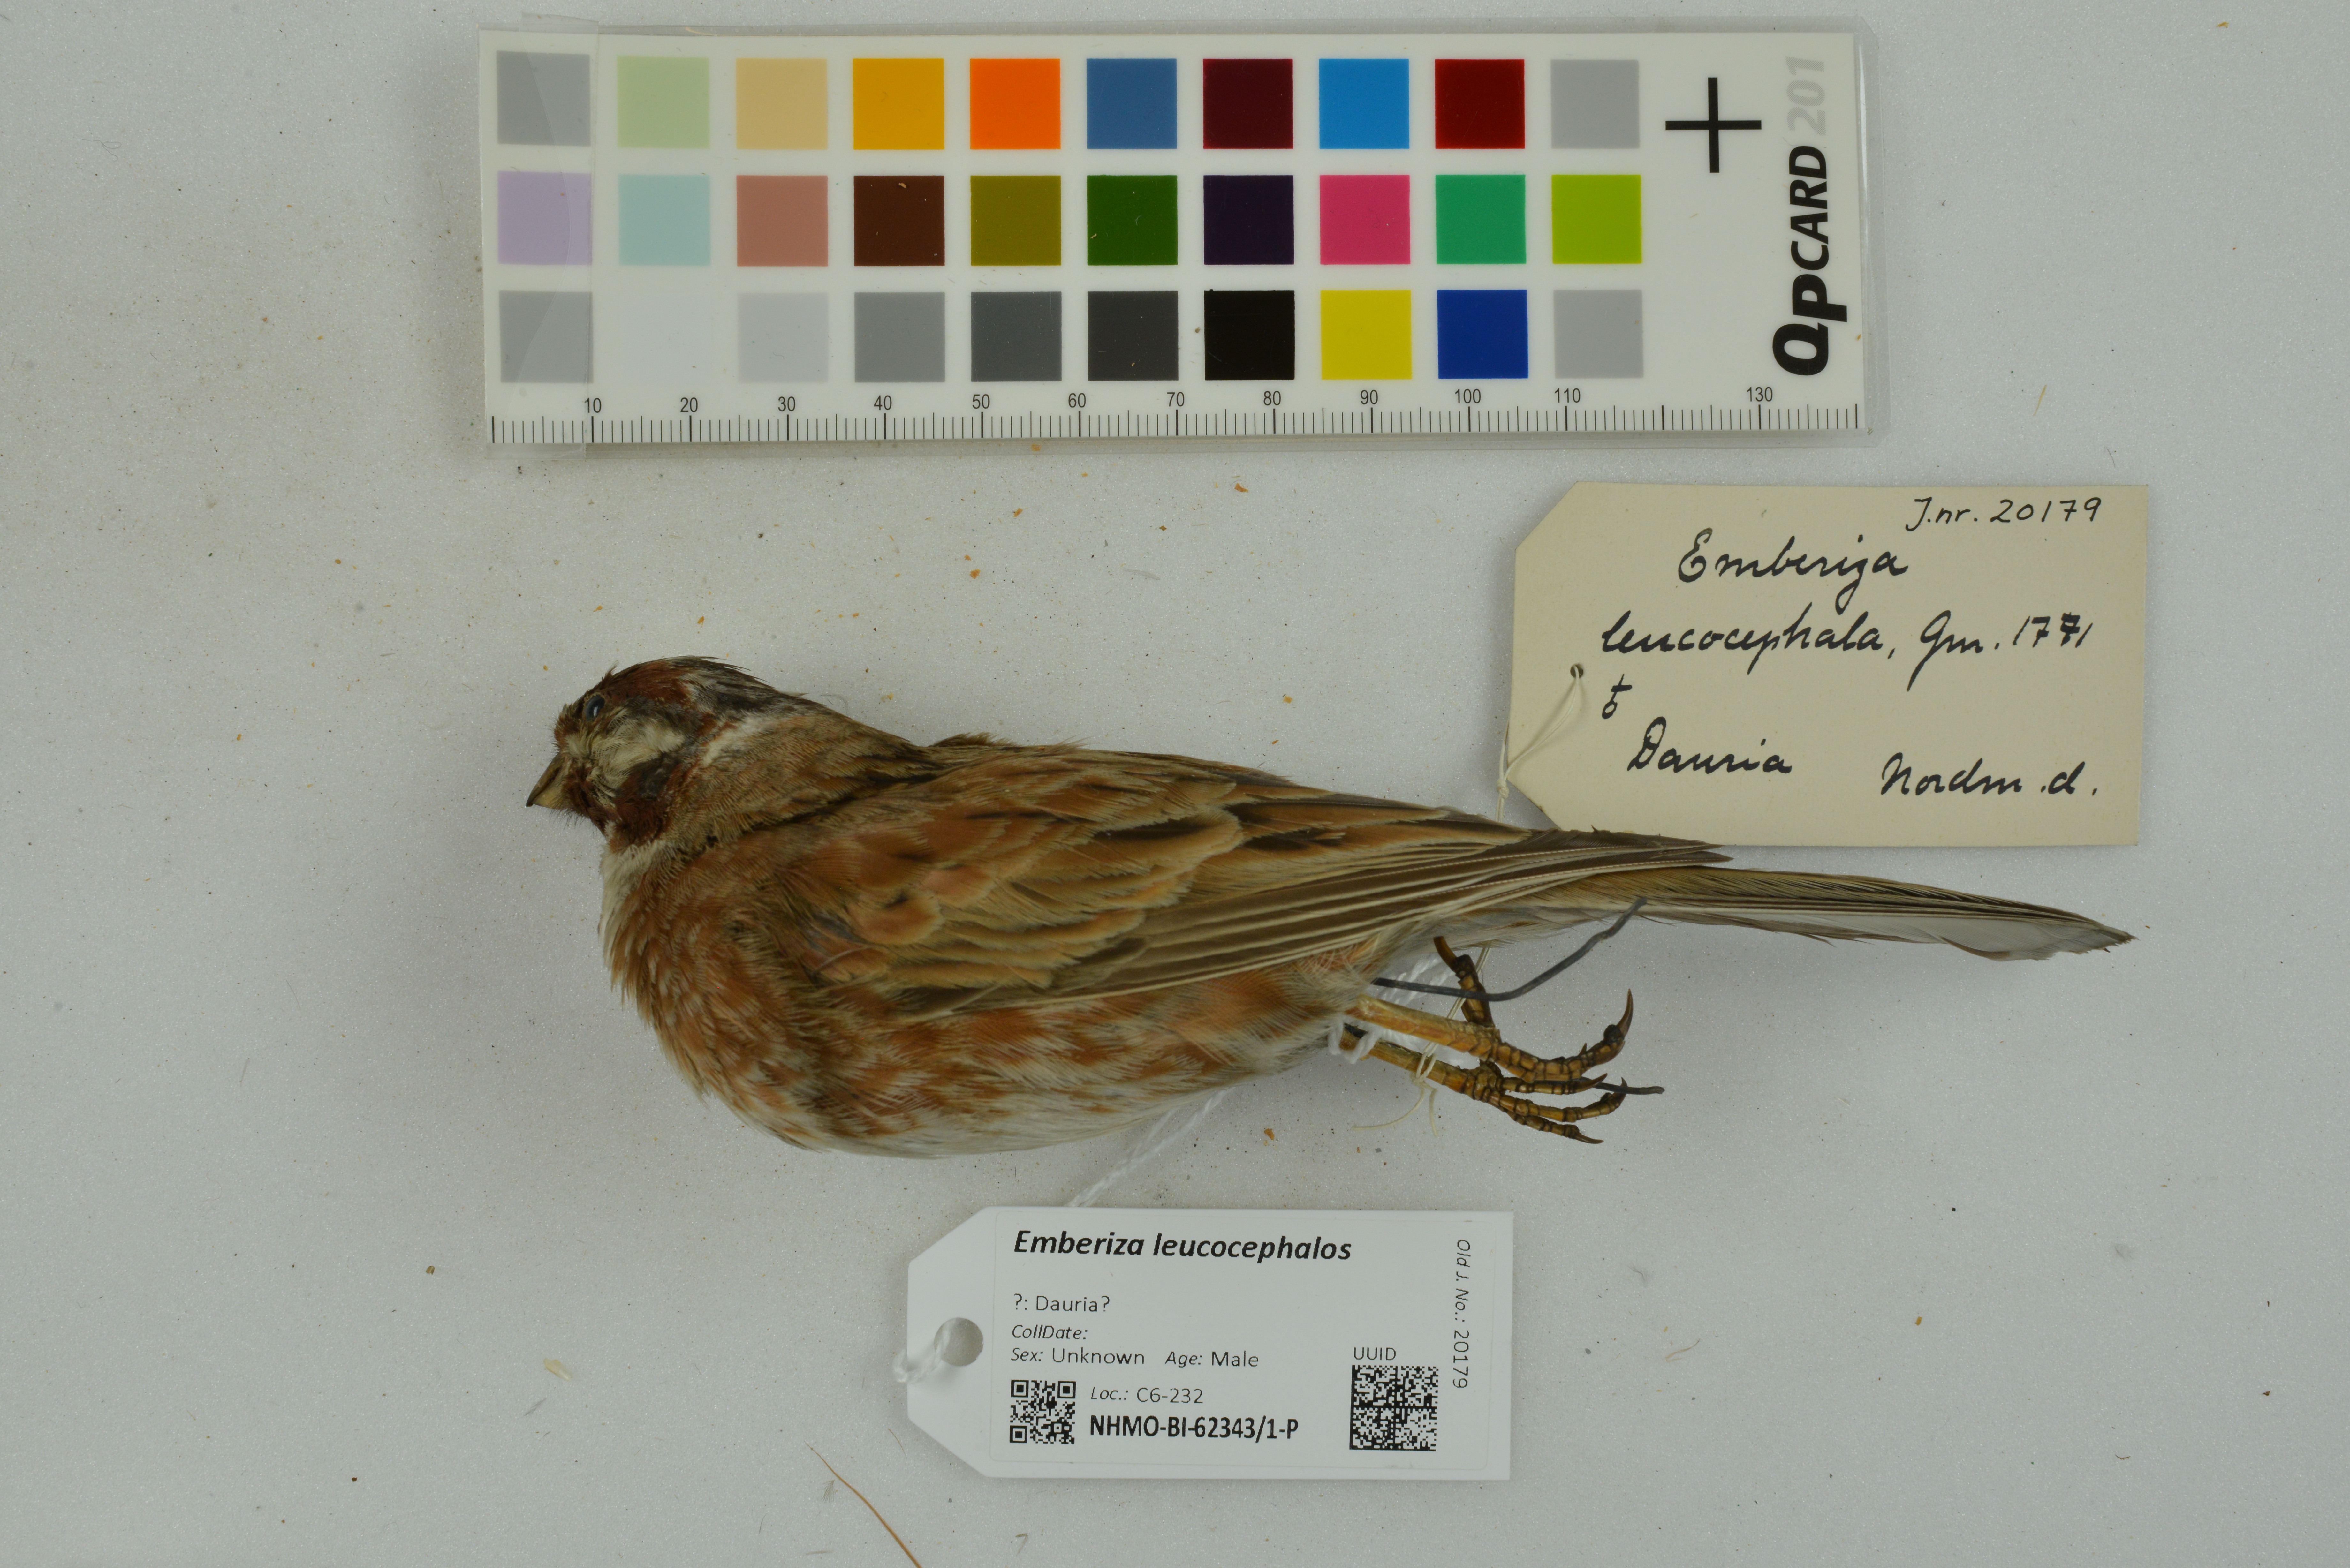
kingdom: Animalia
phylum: Chordata
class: Aves
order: Passeriformes
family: Emberizidae
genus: Emberiza
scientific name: Emberiza leucocephalos
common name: Pine bunting
